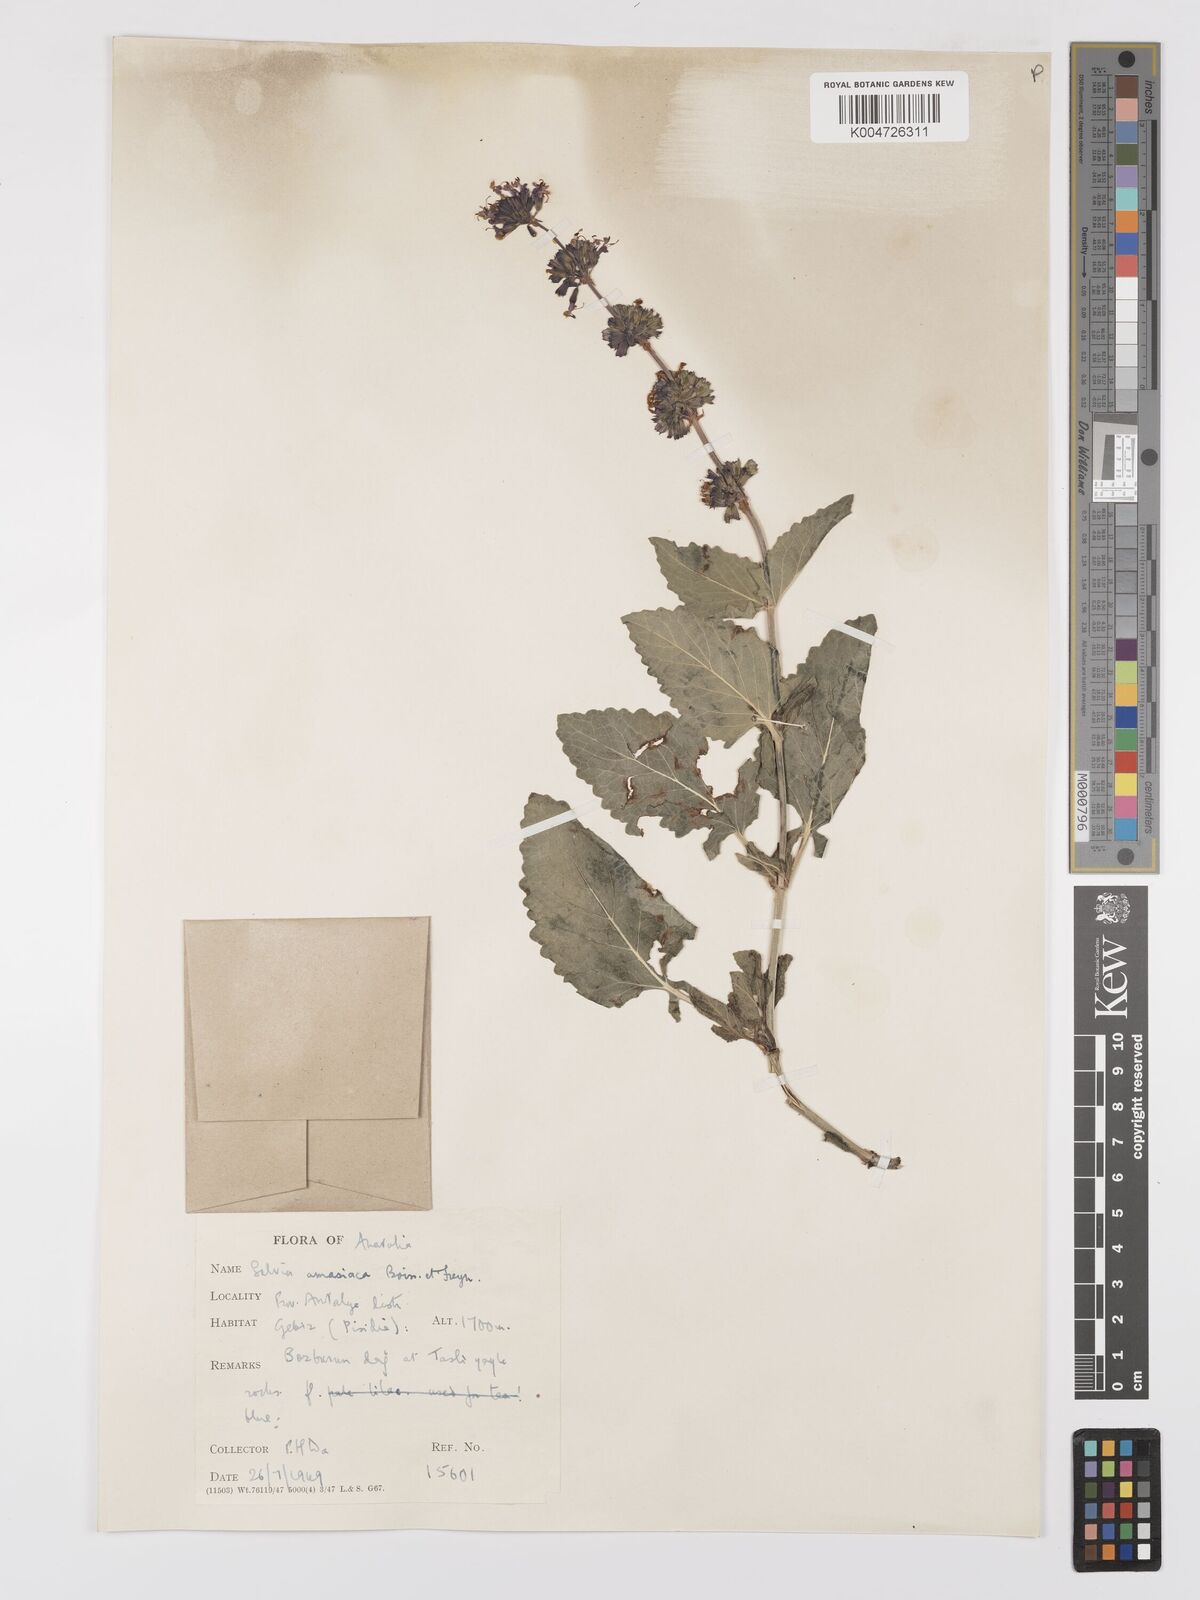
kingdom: Plantae
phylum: Tracheophyta
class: Magnoliopsida
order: Lamiales
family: Lamiaceae
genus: Salvia
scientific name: Salvia verticillata
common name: Whorled clary
